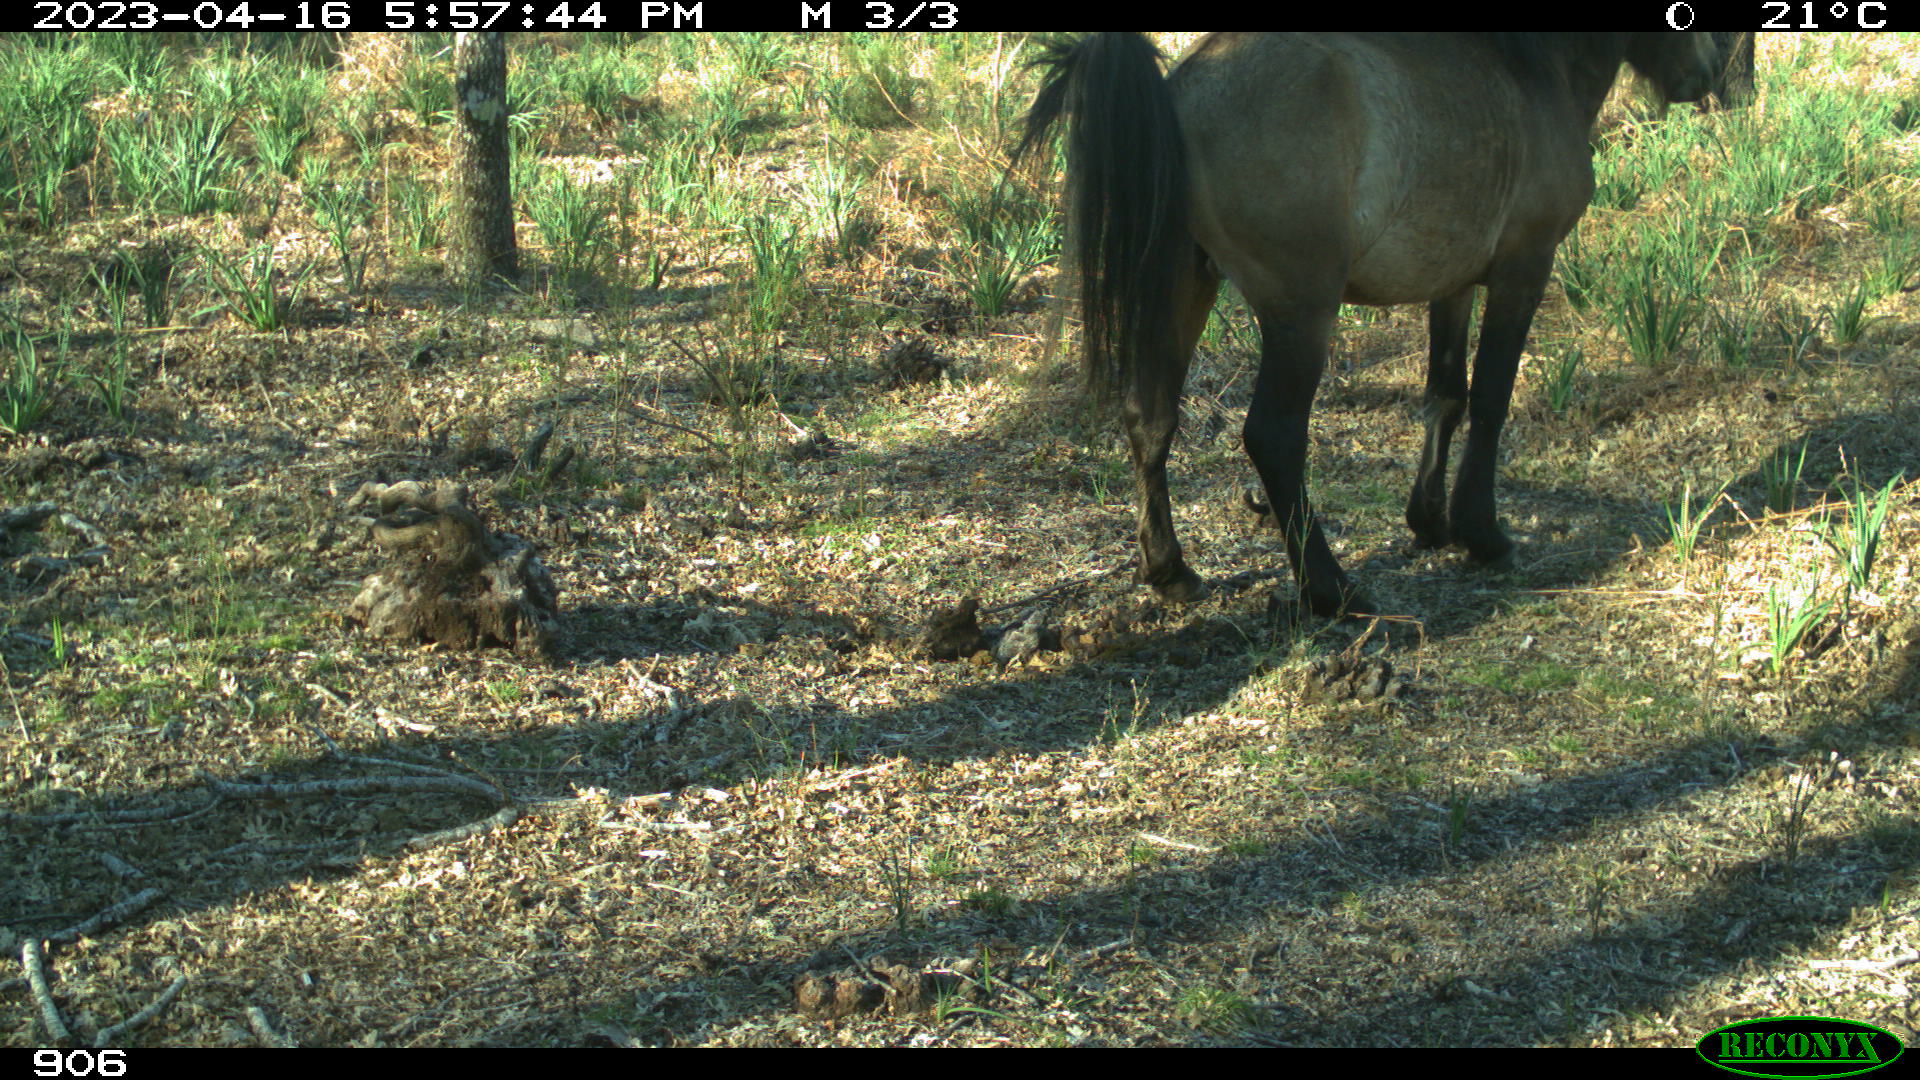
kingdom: Animalia
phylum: Chordata
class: Mammalia
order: Perissodactyla
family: Equidae
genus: Equus
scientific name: Equus caballus
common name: Horse
